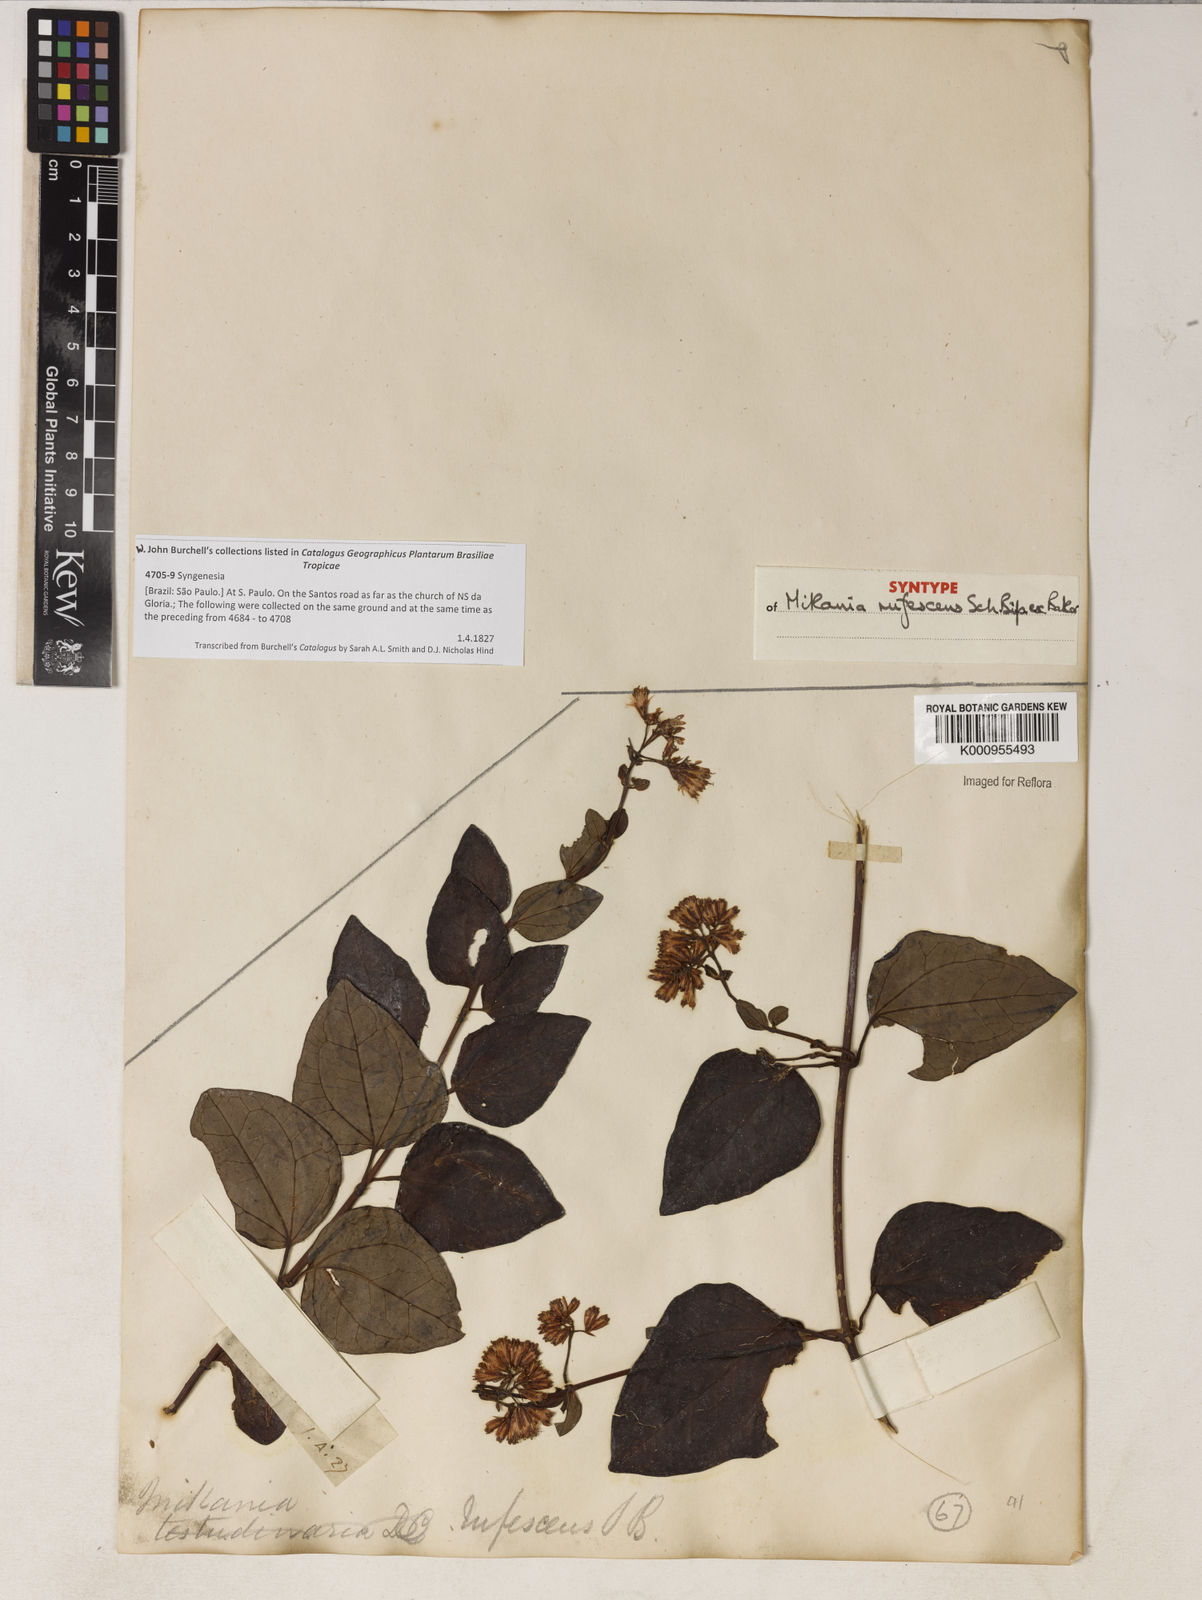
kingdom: Plantae
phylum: Tracheophyta
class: Magnoliopsida
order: Asterales
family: Asteraceae
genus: Mikania
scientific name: Mikania
